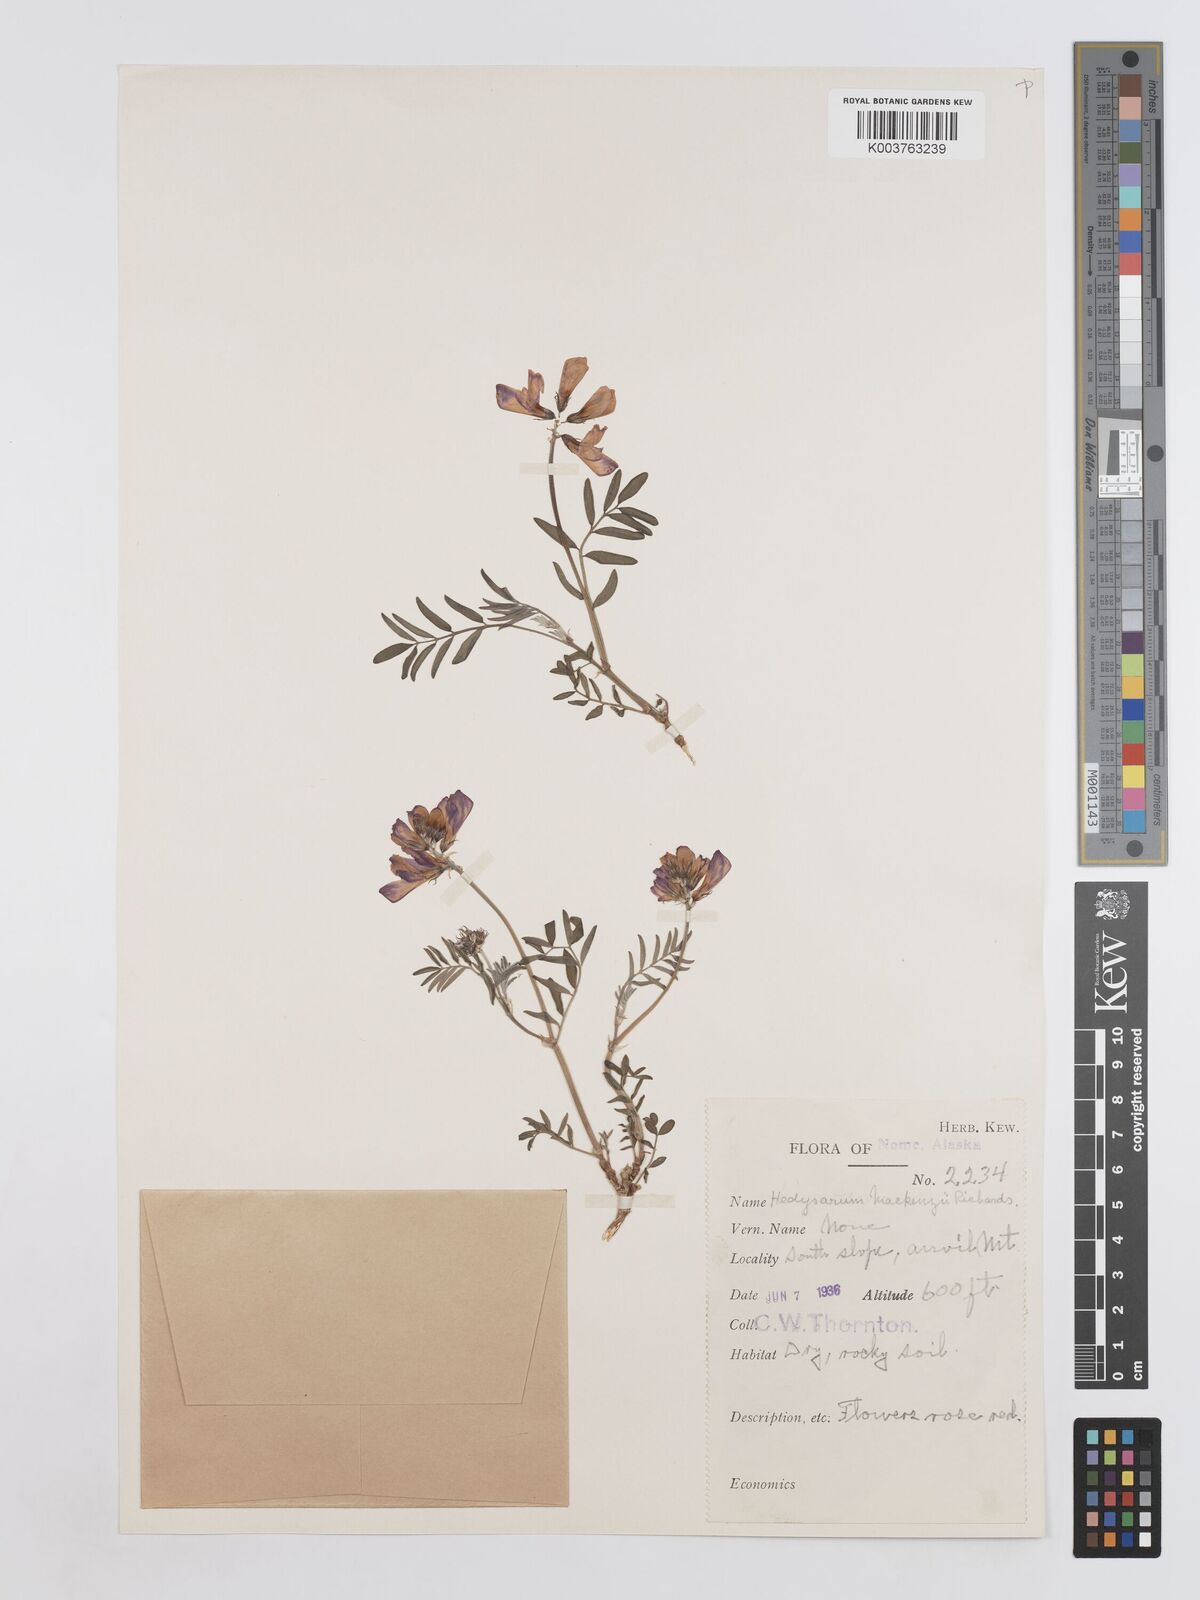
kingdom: Plantae
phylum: Tracheophyta
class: Magnoliopsida
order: Fabales
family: Fabaceae
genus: Hedysarum
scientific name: Hedysarum boreale
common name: Northern sweet-vetch
